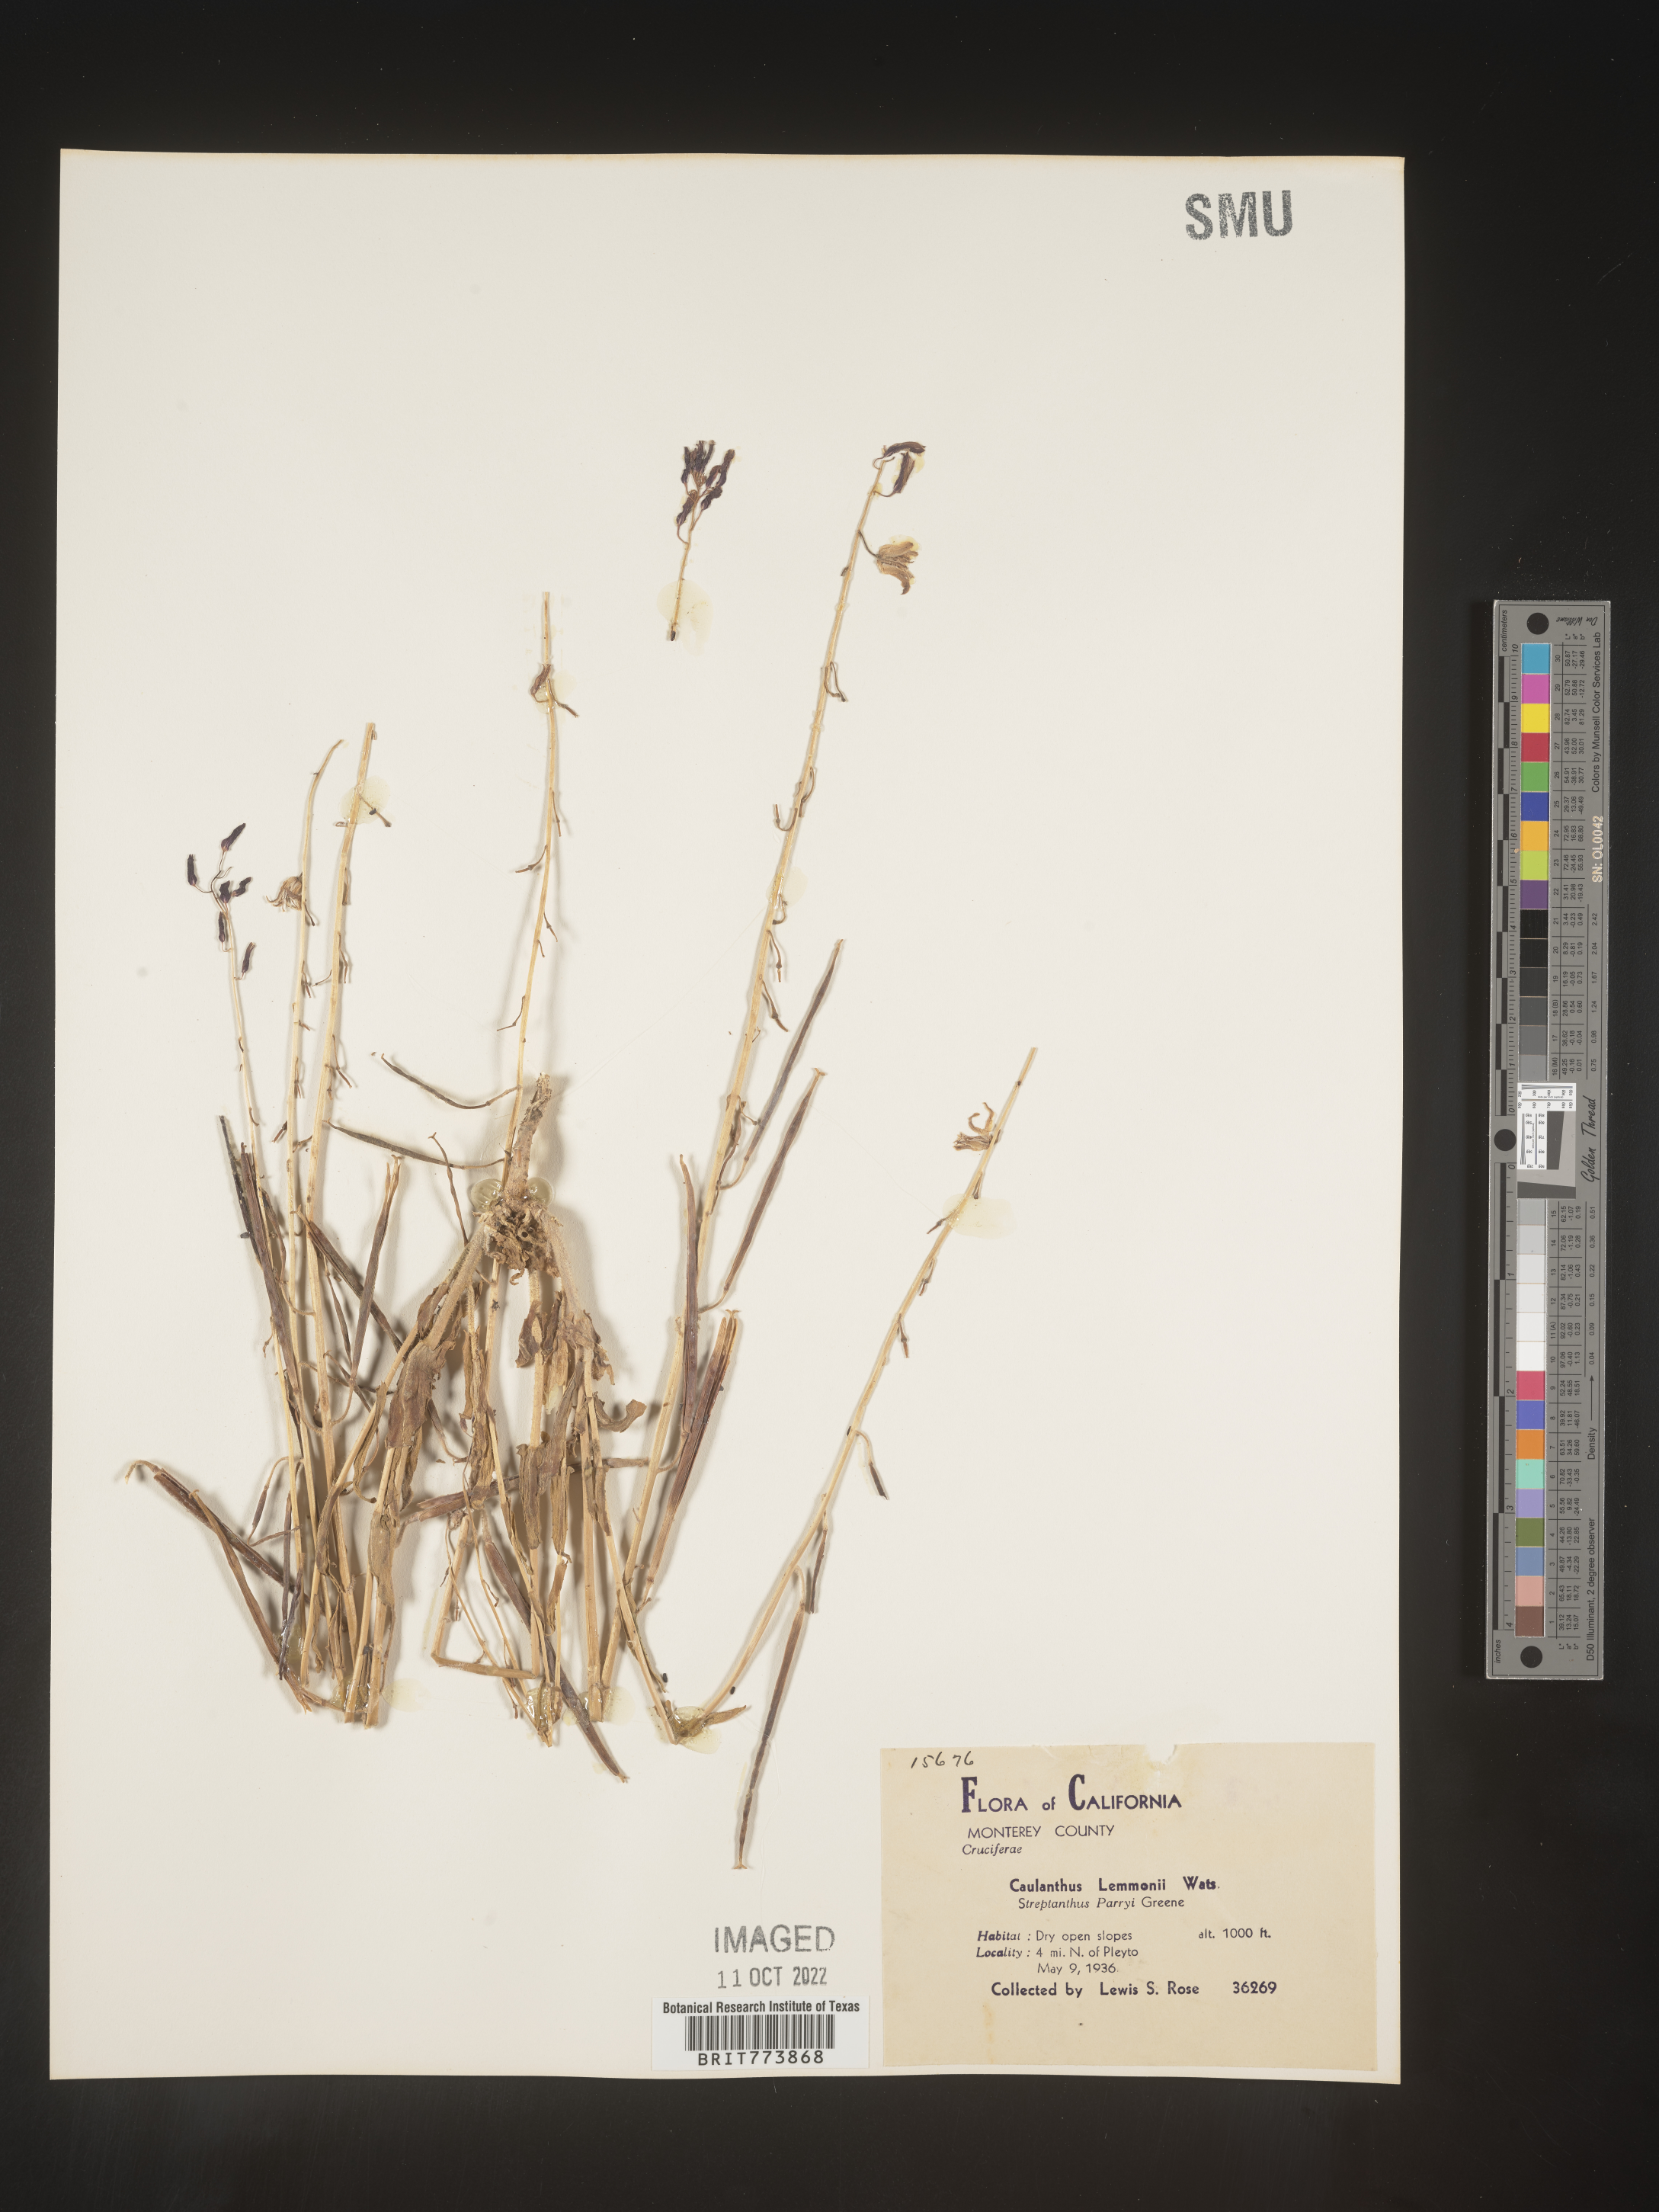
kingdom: Plantae
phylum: Tracheophyta
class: Magnoliopsida
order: Brassicales
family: Brassicaceae
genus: Streptanthus
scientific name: Streptanthus
